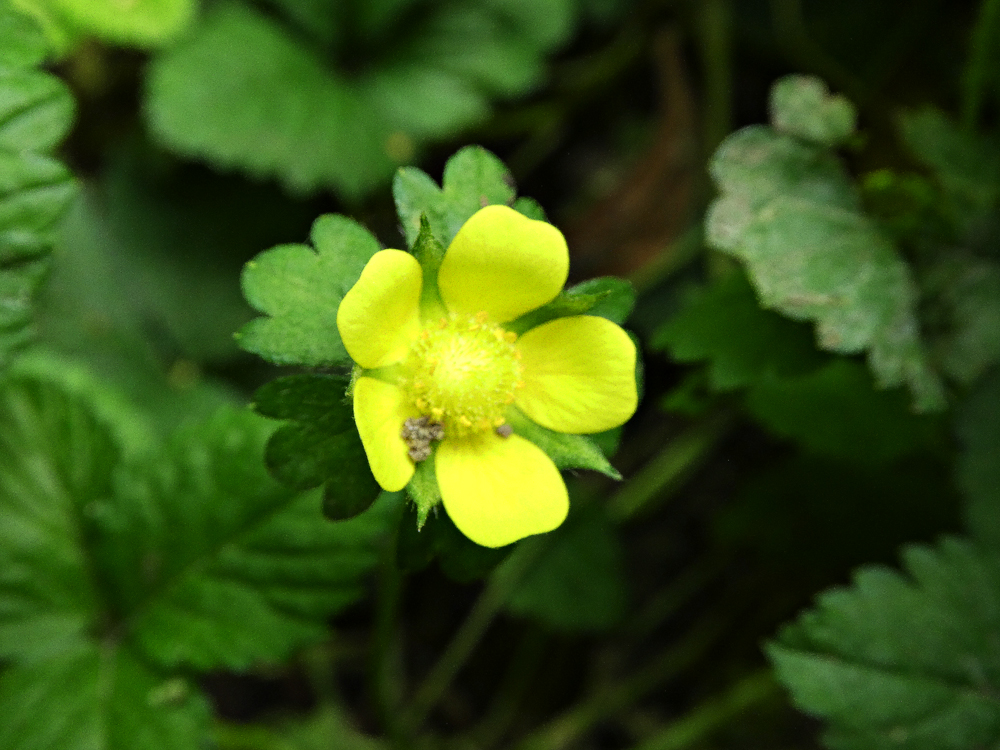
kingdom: Plantae
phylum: Tracheophyta
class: Magnoliopsida
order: Rosales
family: Rosaceae
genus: Potentilla
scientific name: Potentilla indica
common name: Yellow-flowered strawberry
